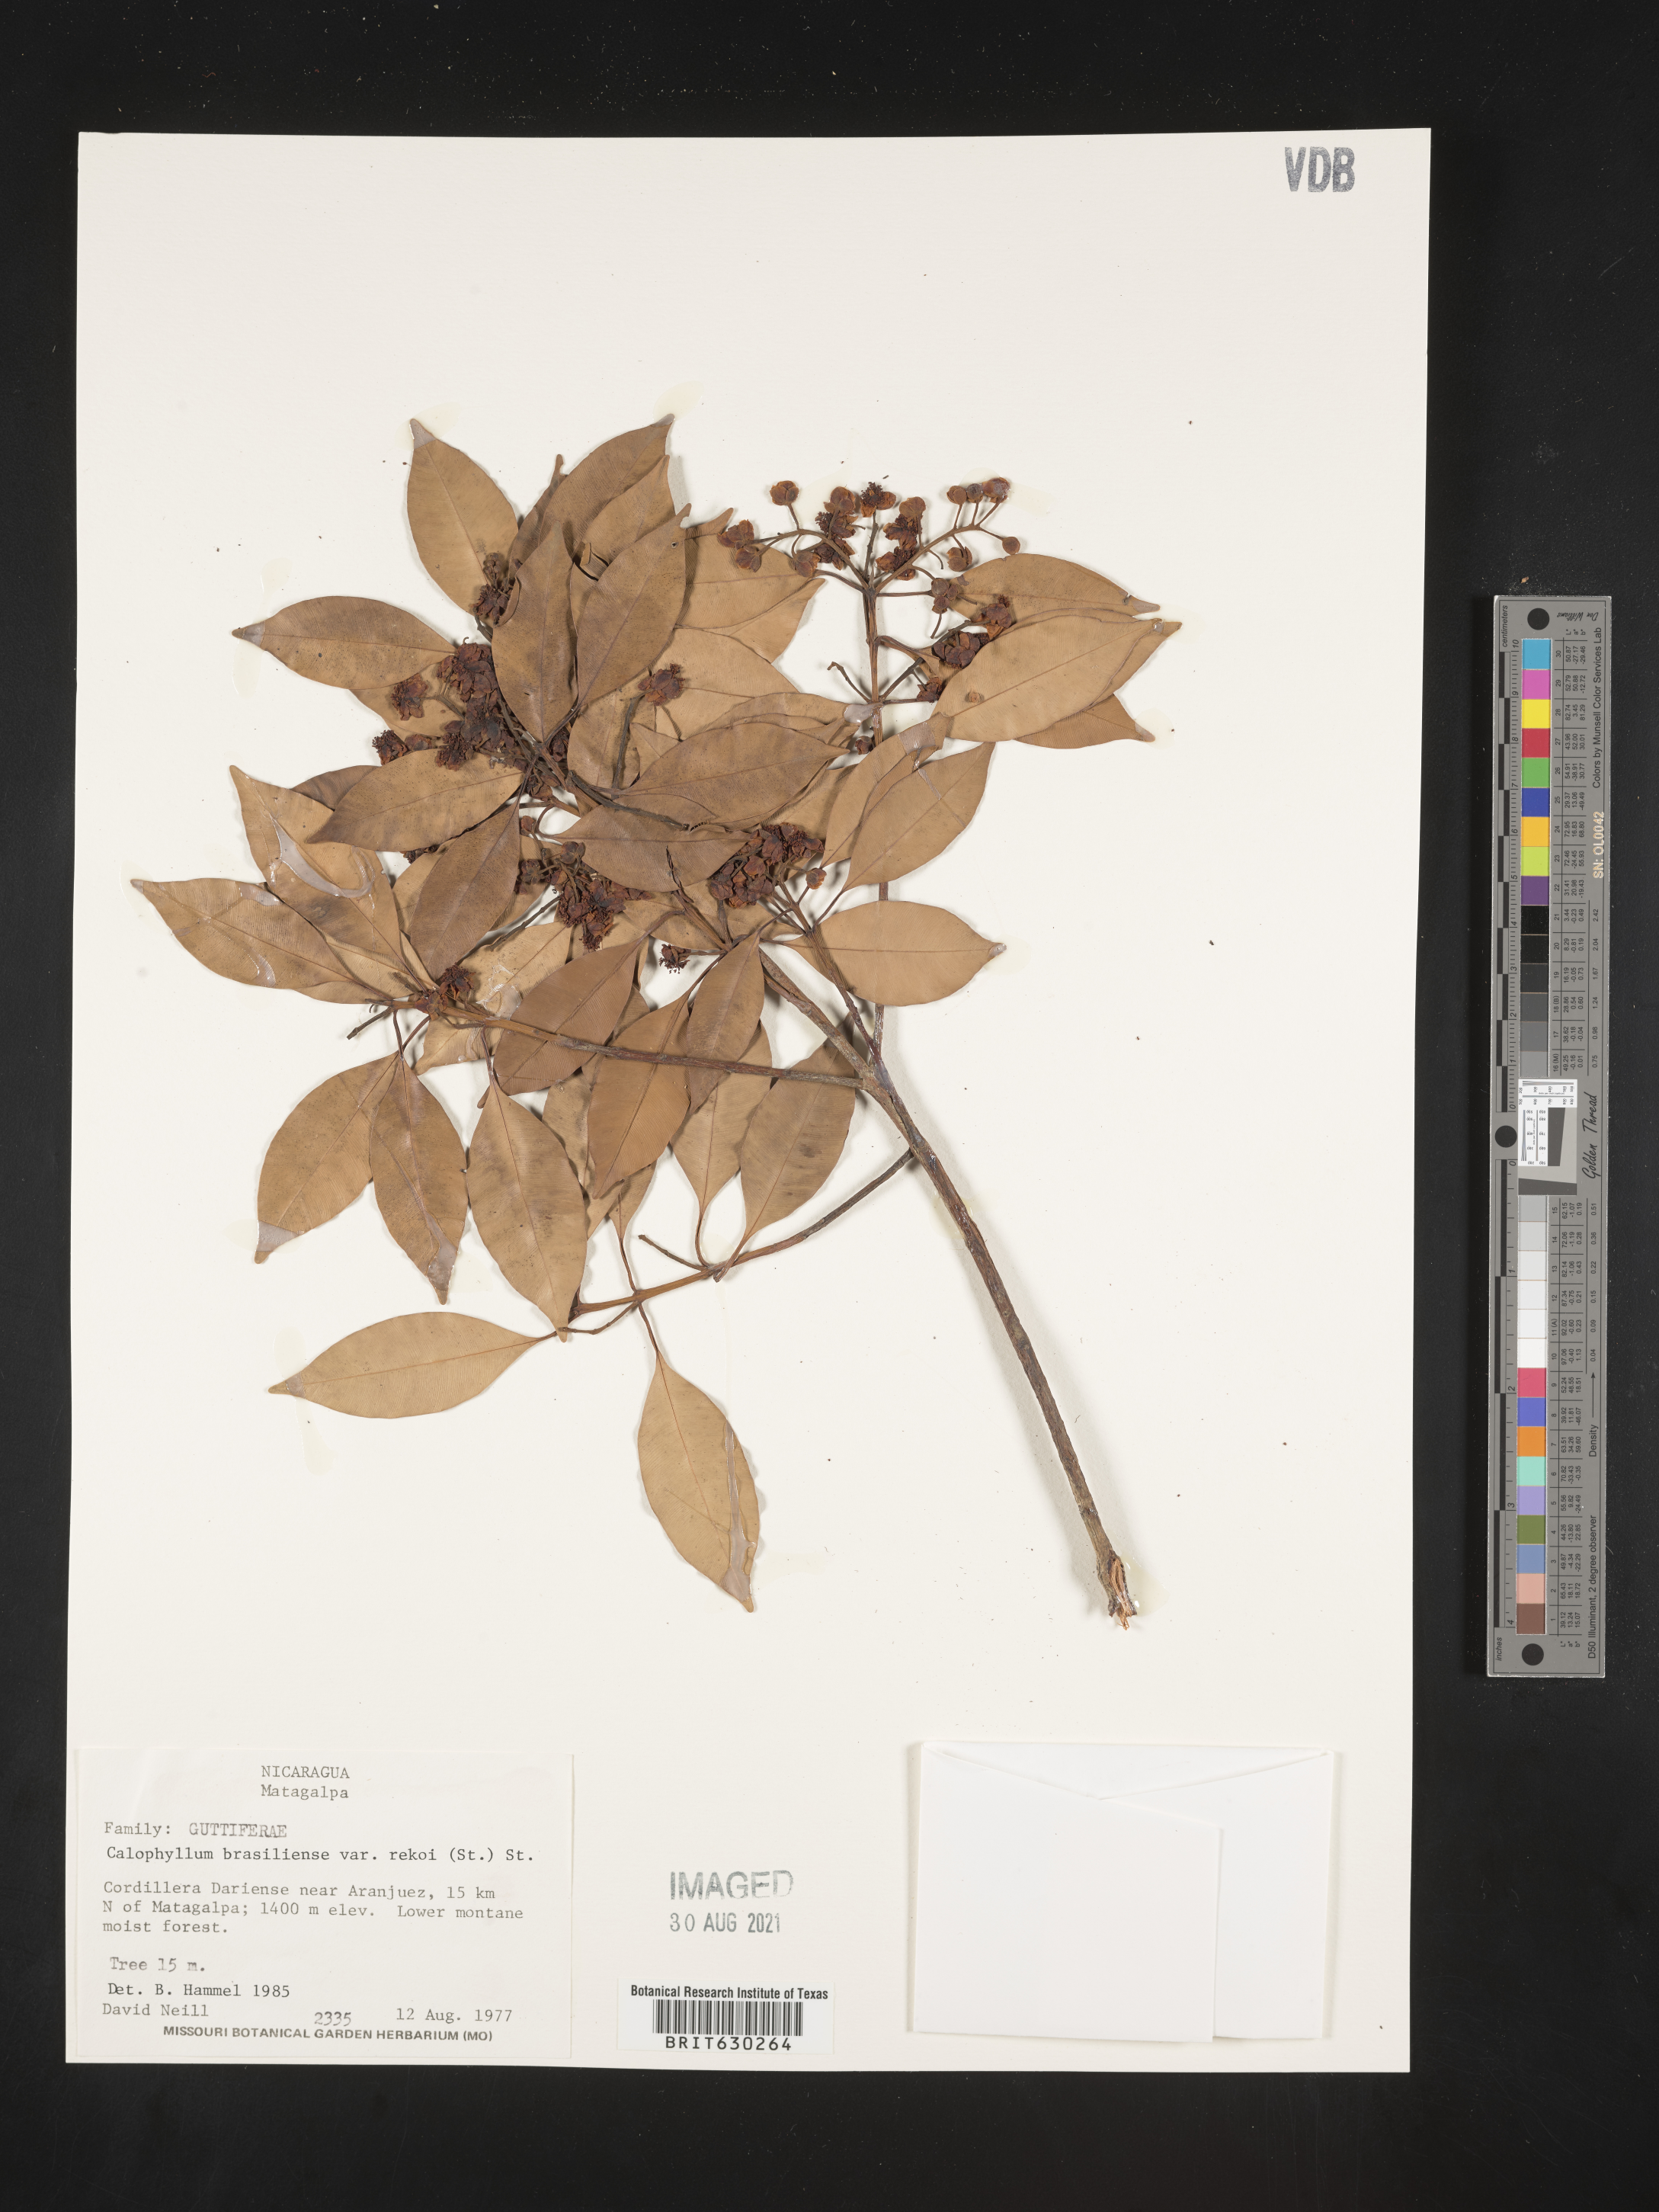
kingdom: Plantae
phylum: Tracheophyta
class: Magnoliopsida
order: Malpighiales
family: Calophyllaceae
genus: Calophyllum
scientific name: Calophyllum brasiliense
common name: Santa maria
